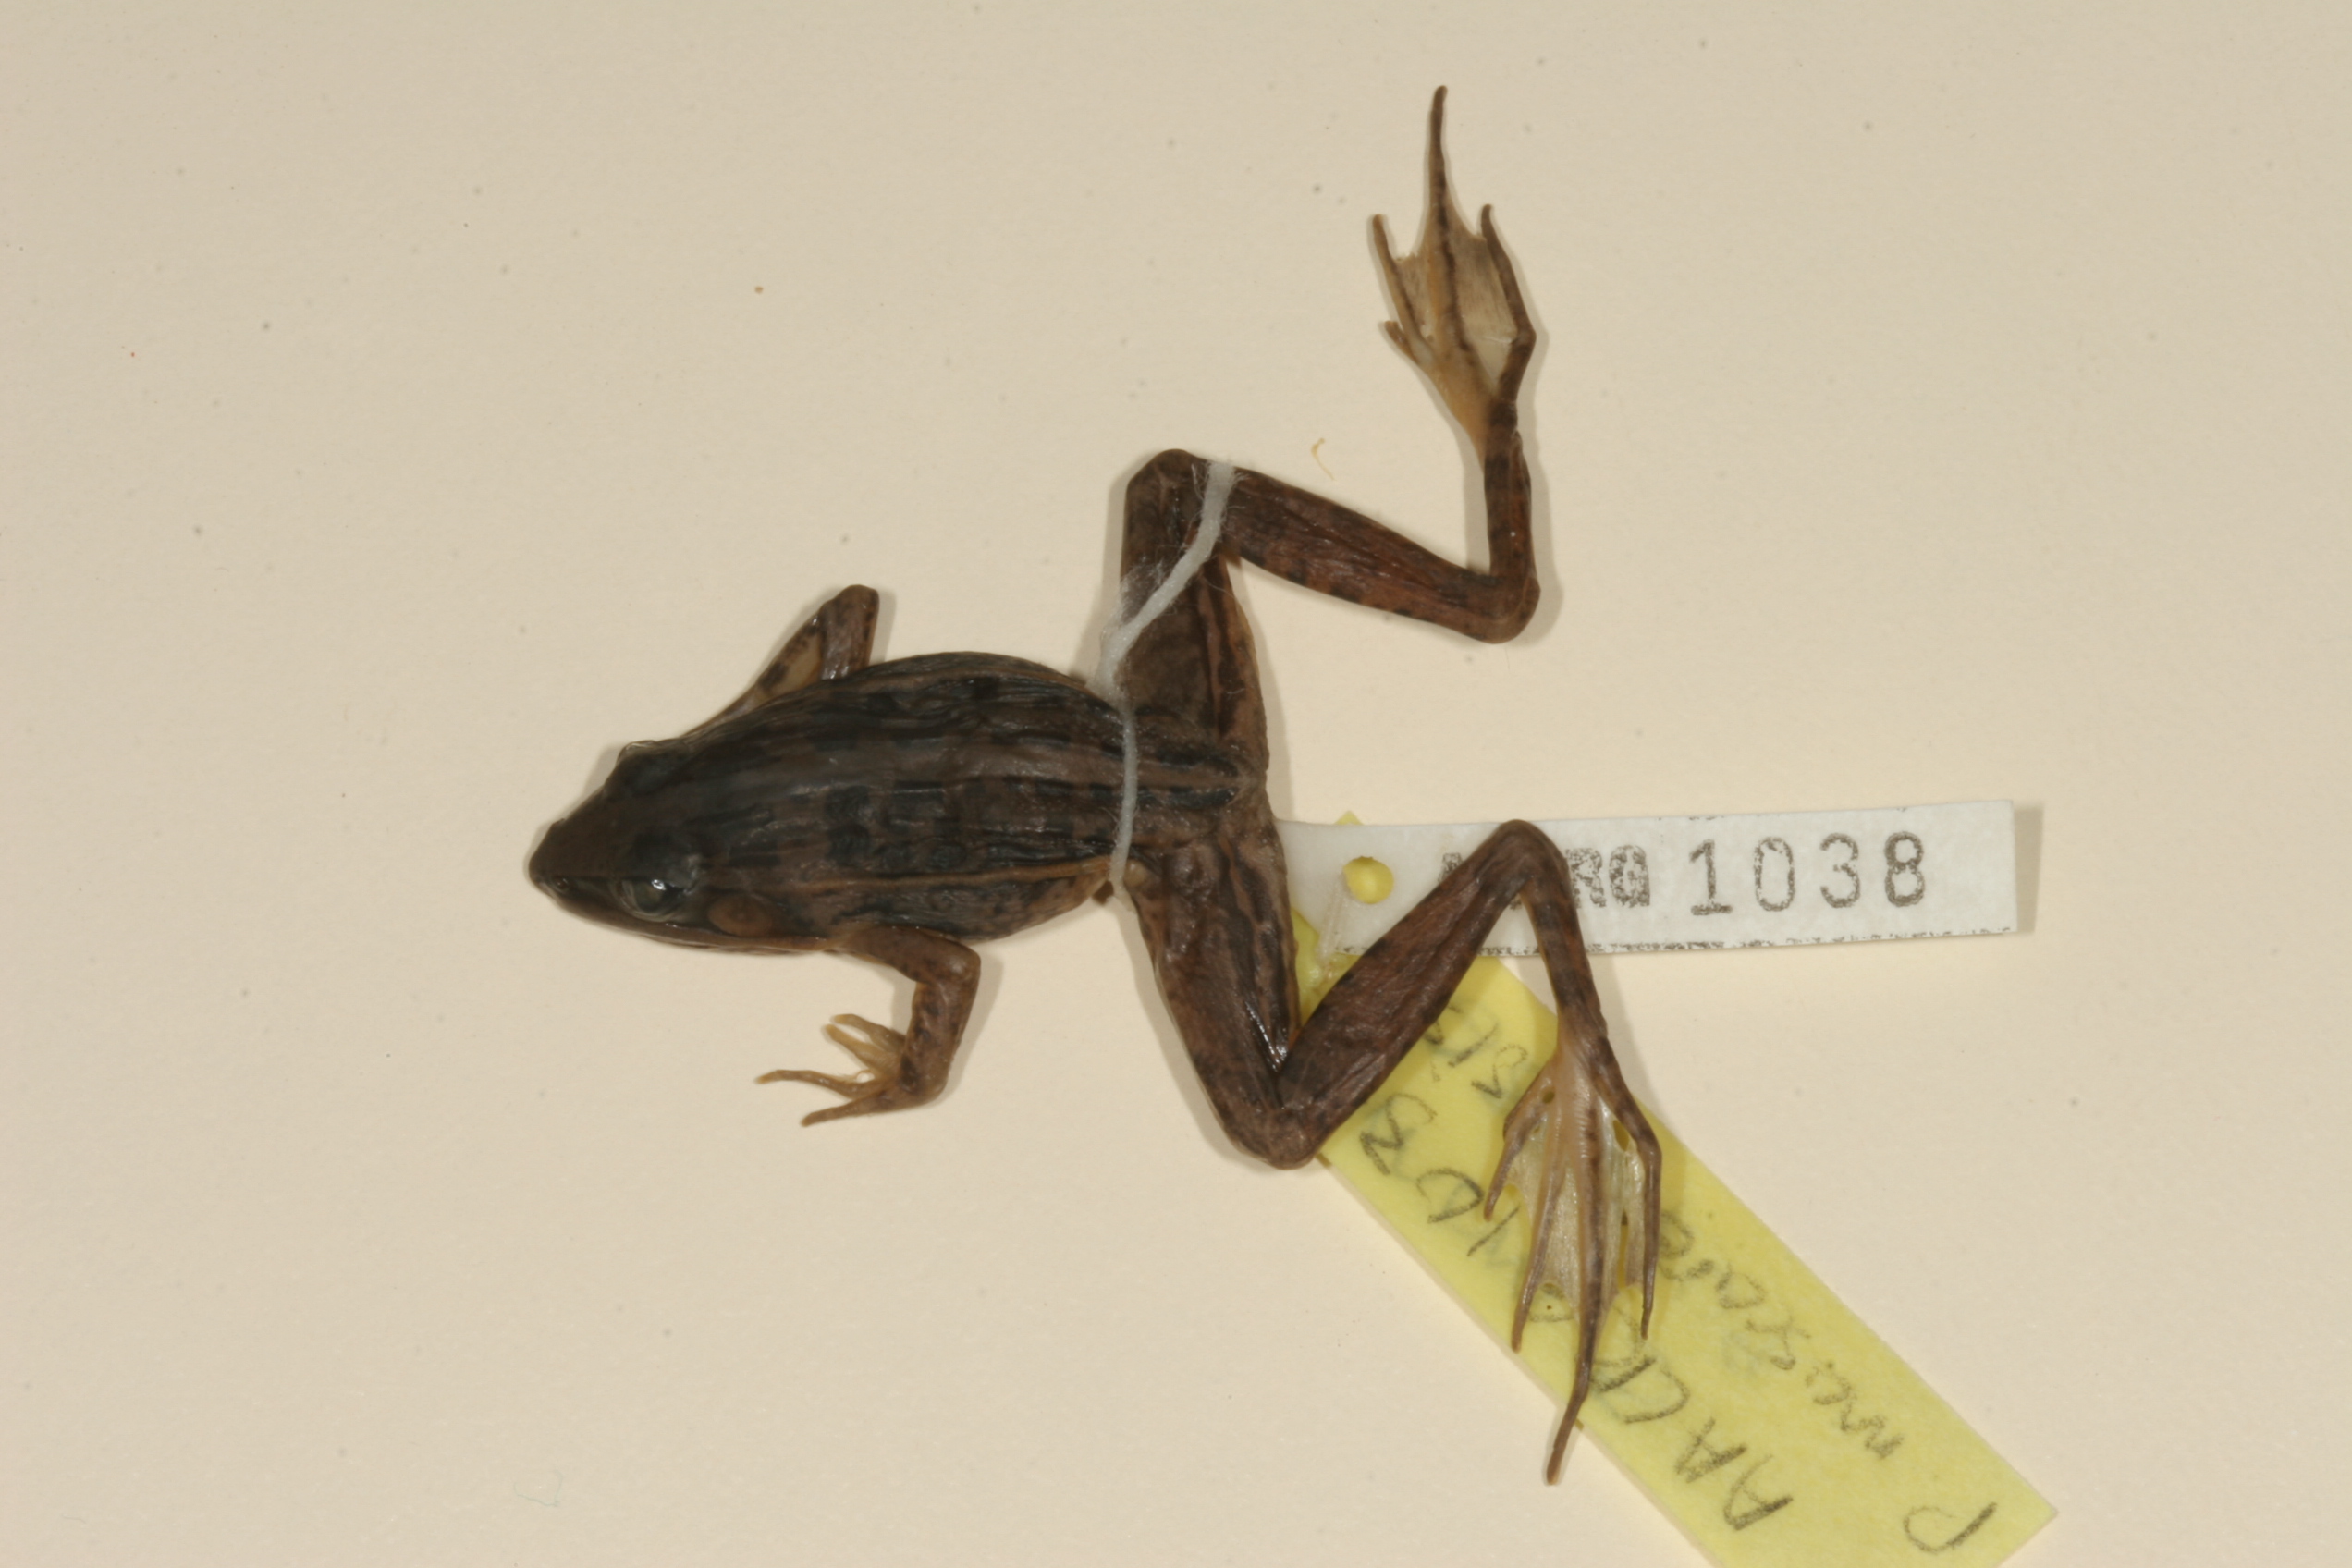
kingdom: Animalia
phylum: Chordata
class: Amphibia
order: Anura
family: Ptychadenidae
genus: Ptychadena
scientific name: Ptychadena mascareniensis
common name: Mascarene grass frog
